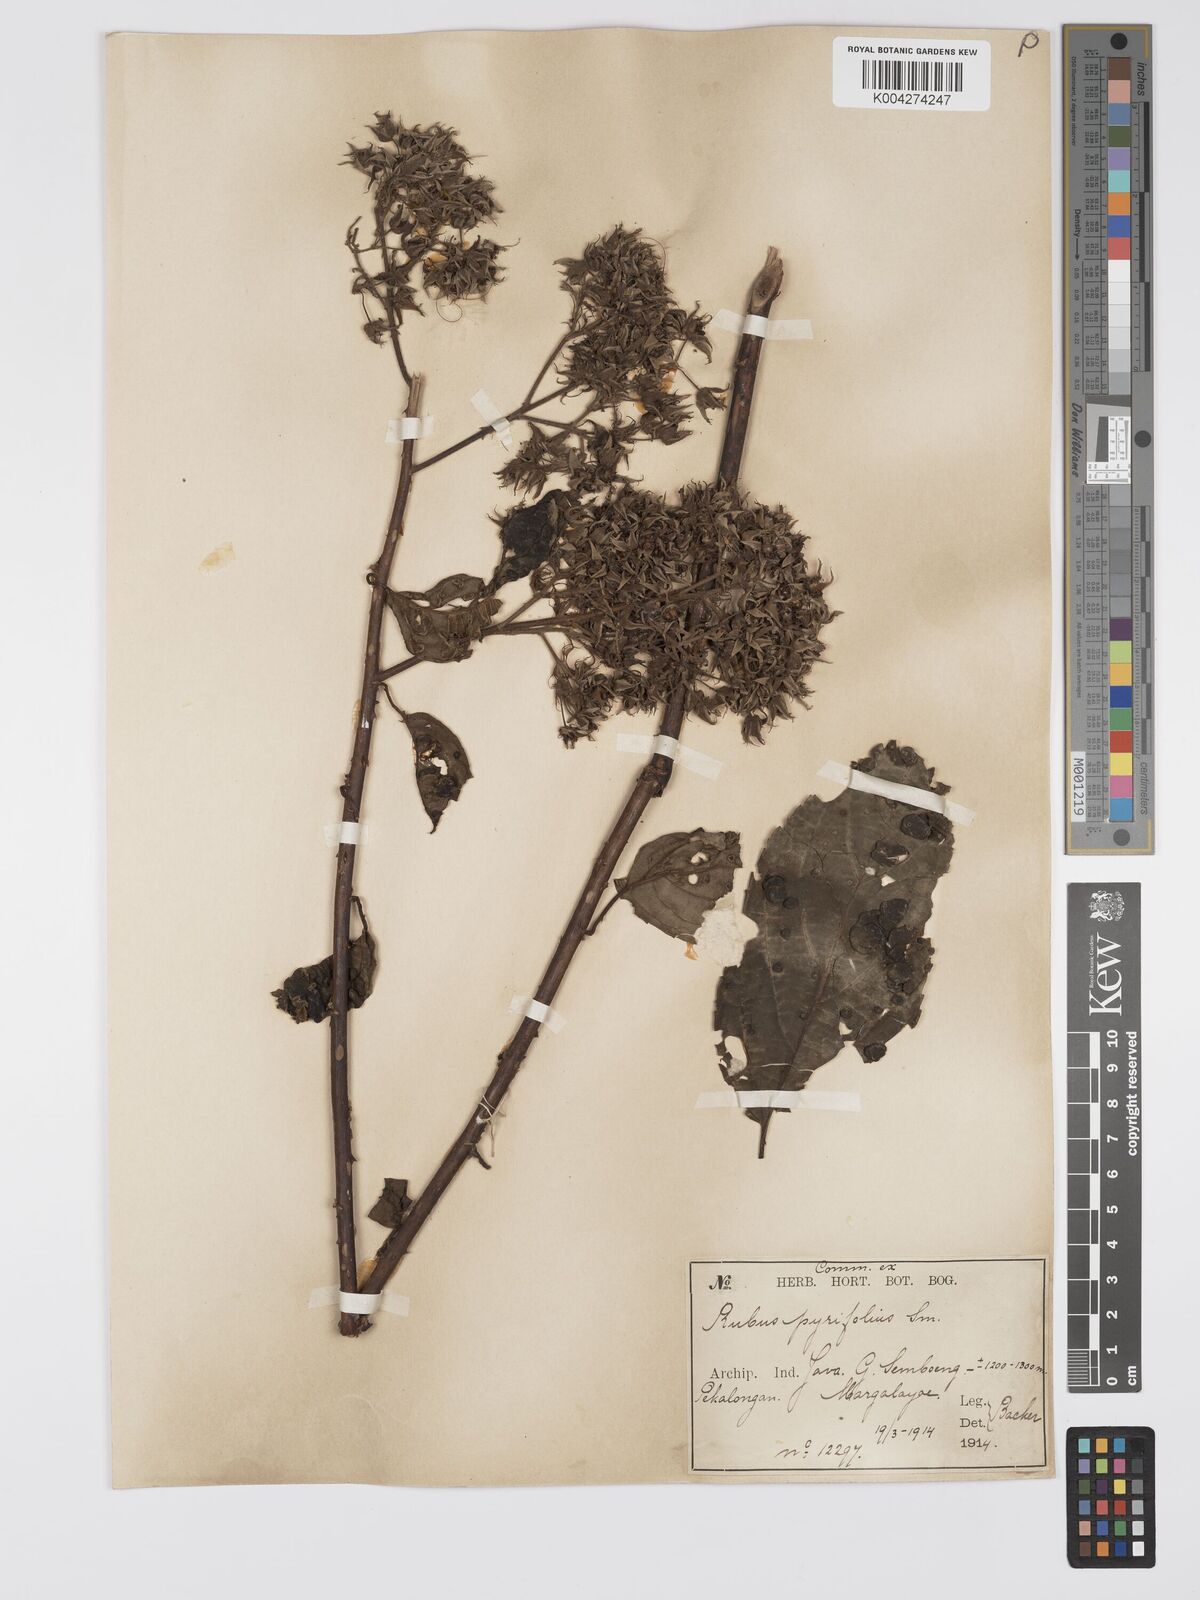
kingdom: Plantae
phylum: Tracheophyta
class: Magnoliopsida
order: Rosales
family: Rosaceae
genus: Rubus
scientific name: Rubus pirifolius
